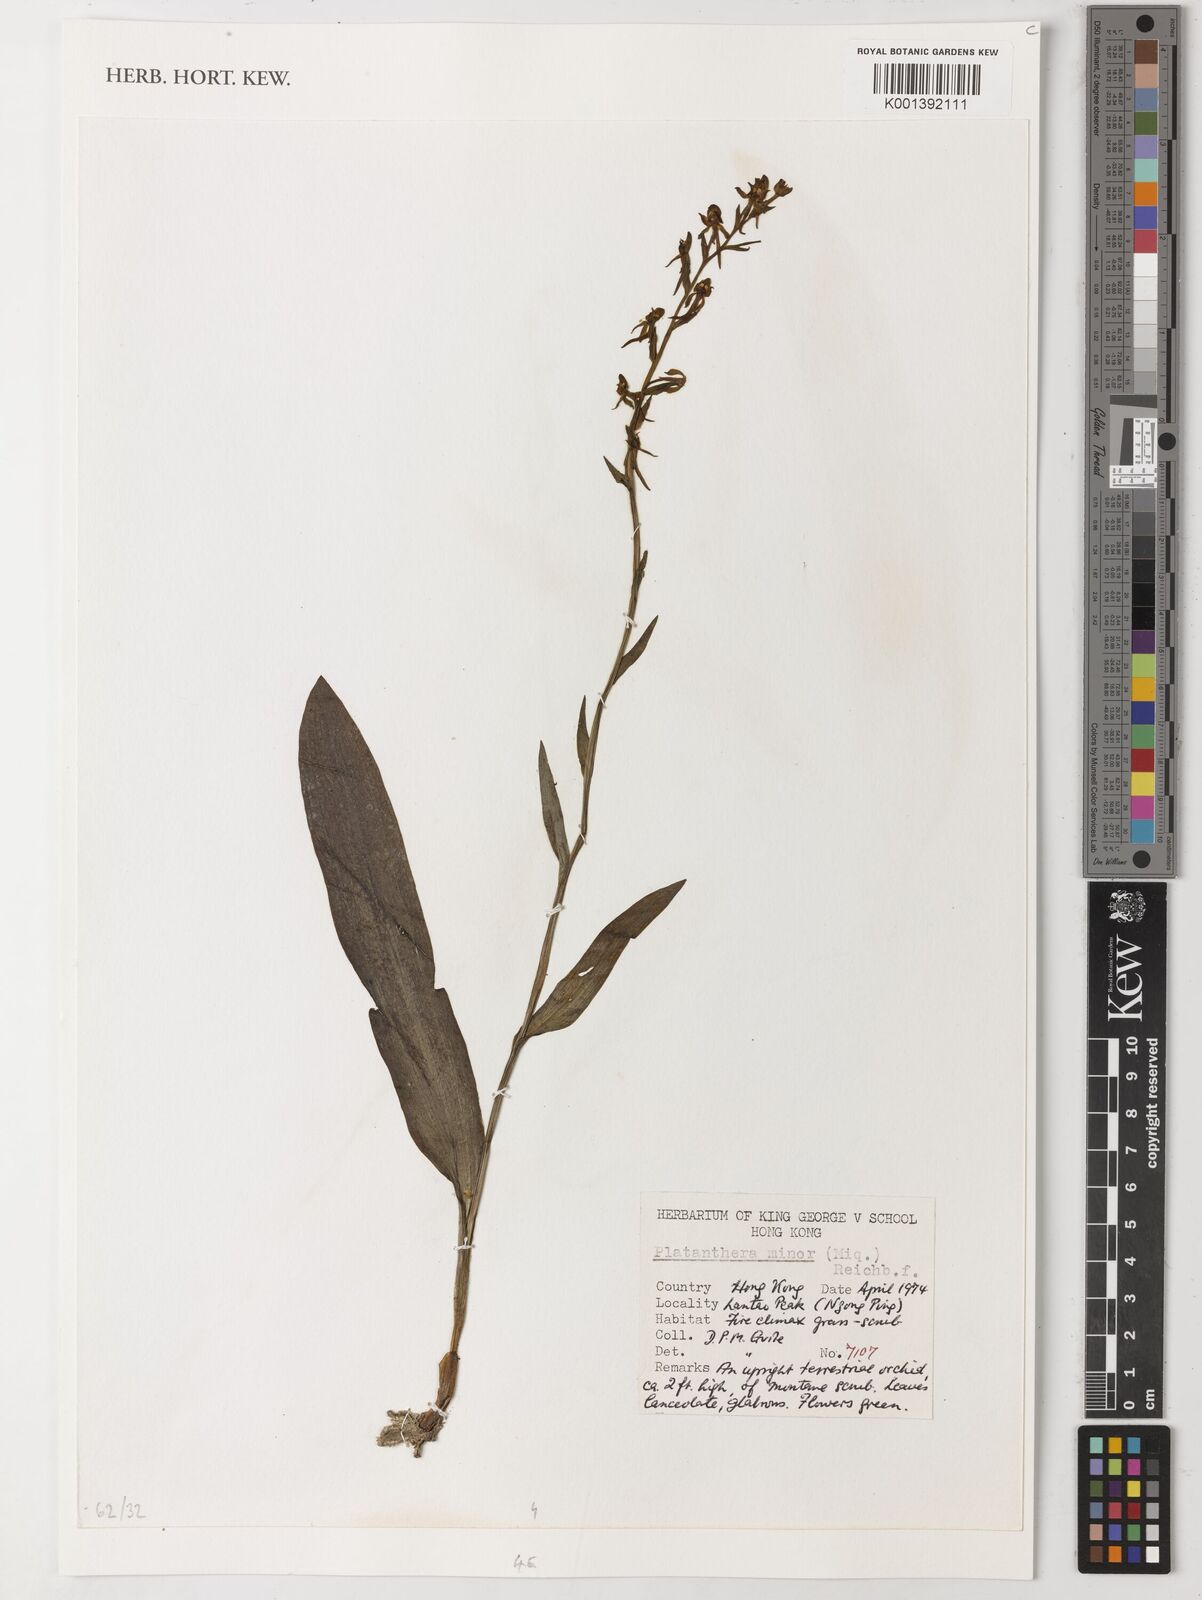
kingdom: Plantae
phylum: Tracheophyta
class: Liliopsida
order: Asparagales
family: Orchidaceae
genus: Platanthera
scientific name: Platanthera minor
